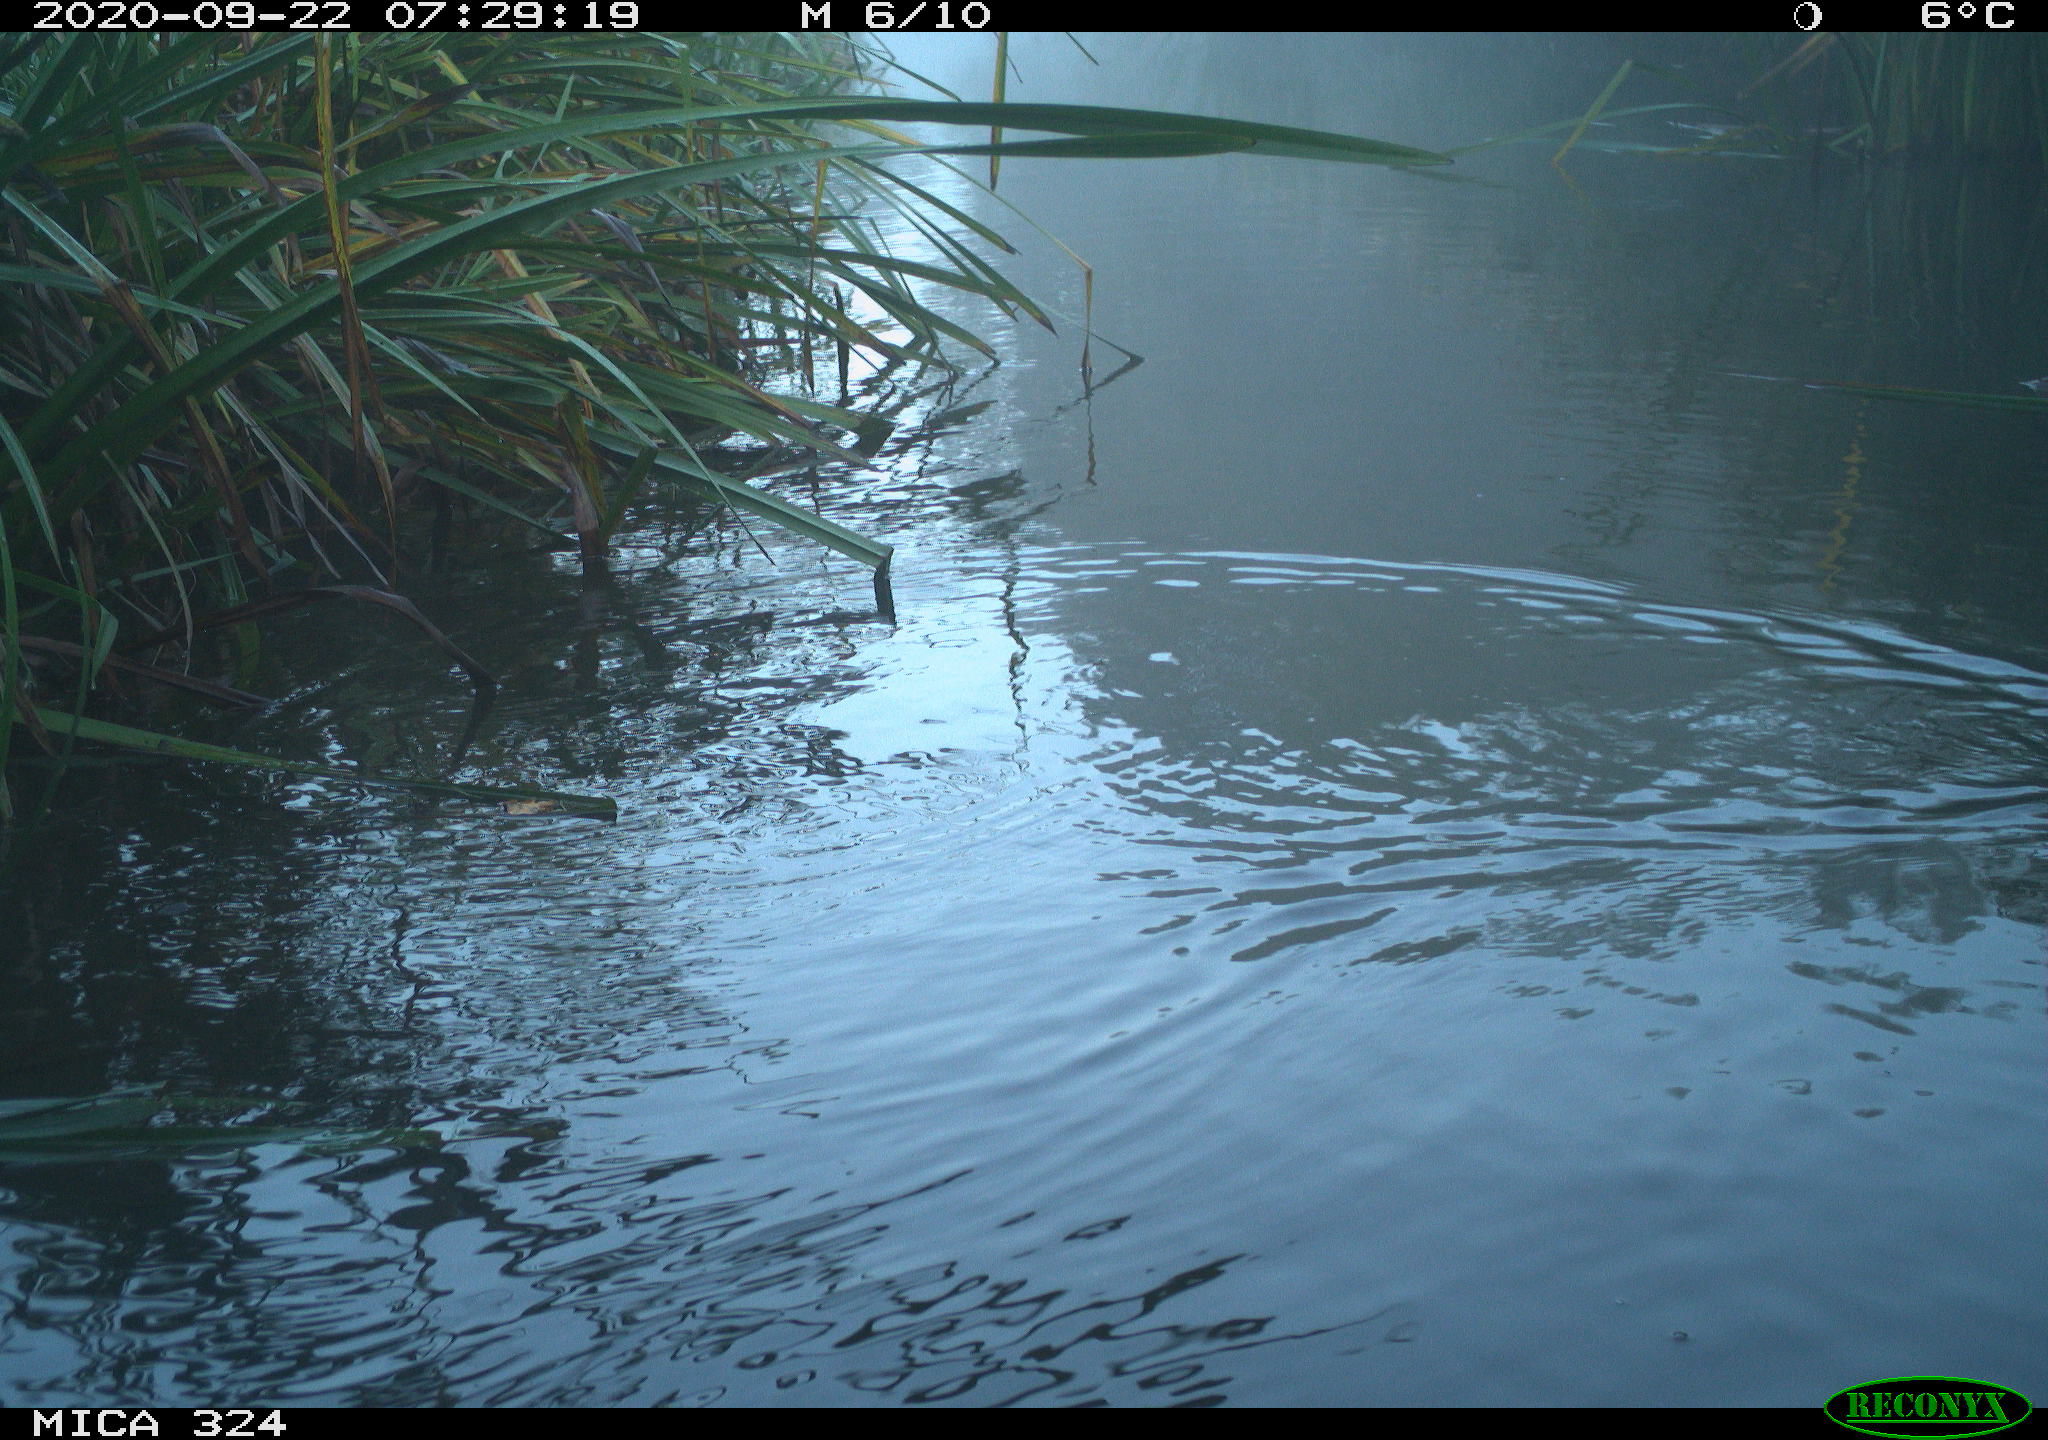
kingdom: Animalia
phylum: Chordata
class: Aves
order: Gruiformes
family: Rallidae
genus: Gallinula
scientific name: Gallinula chloropus
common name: Common moorhen
